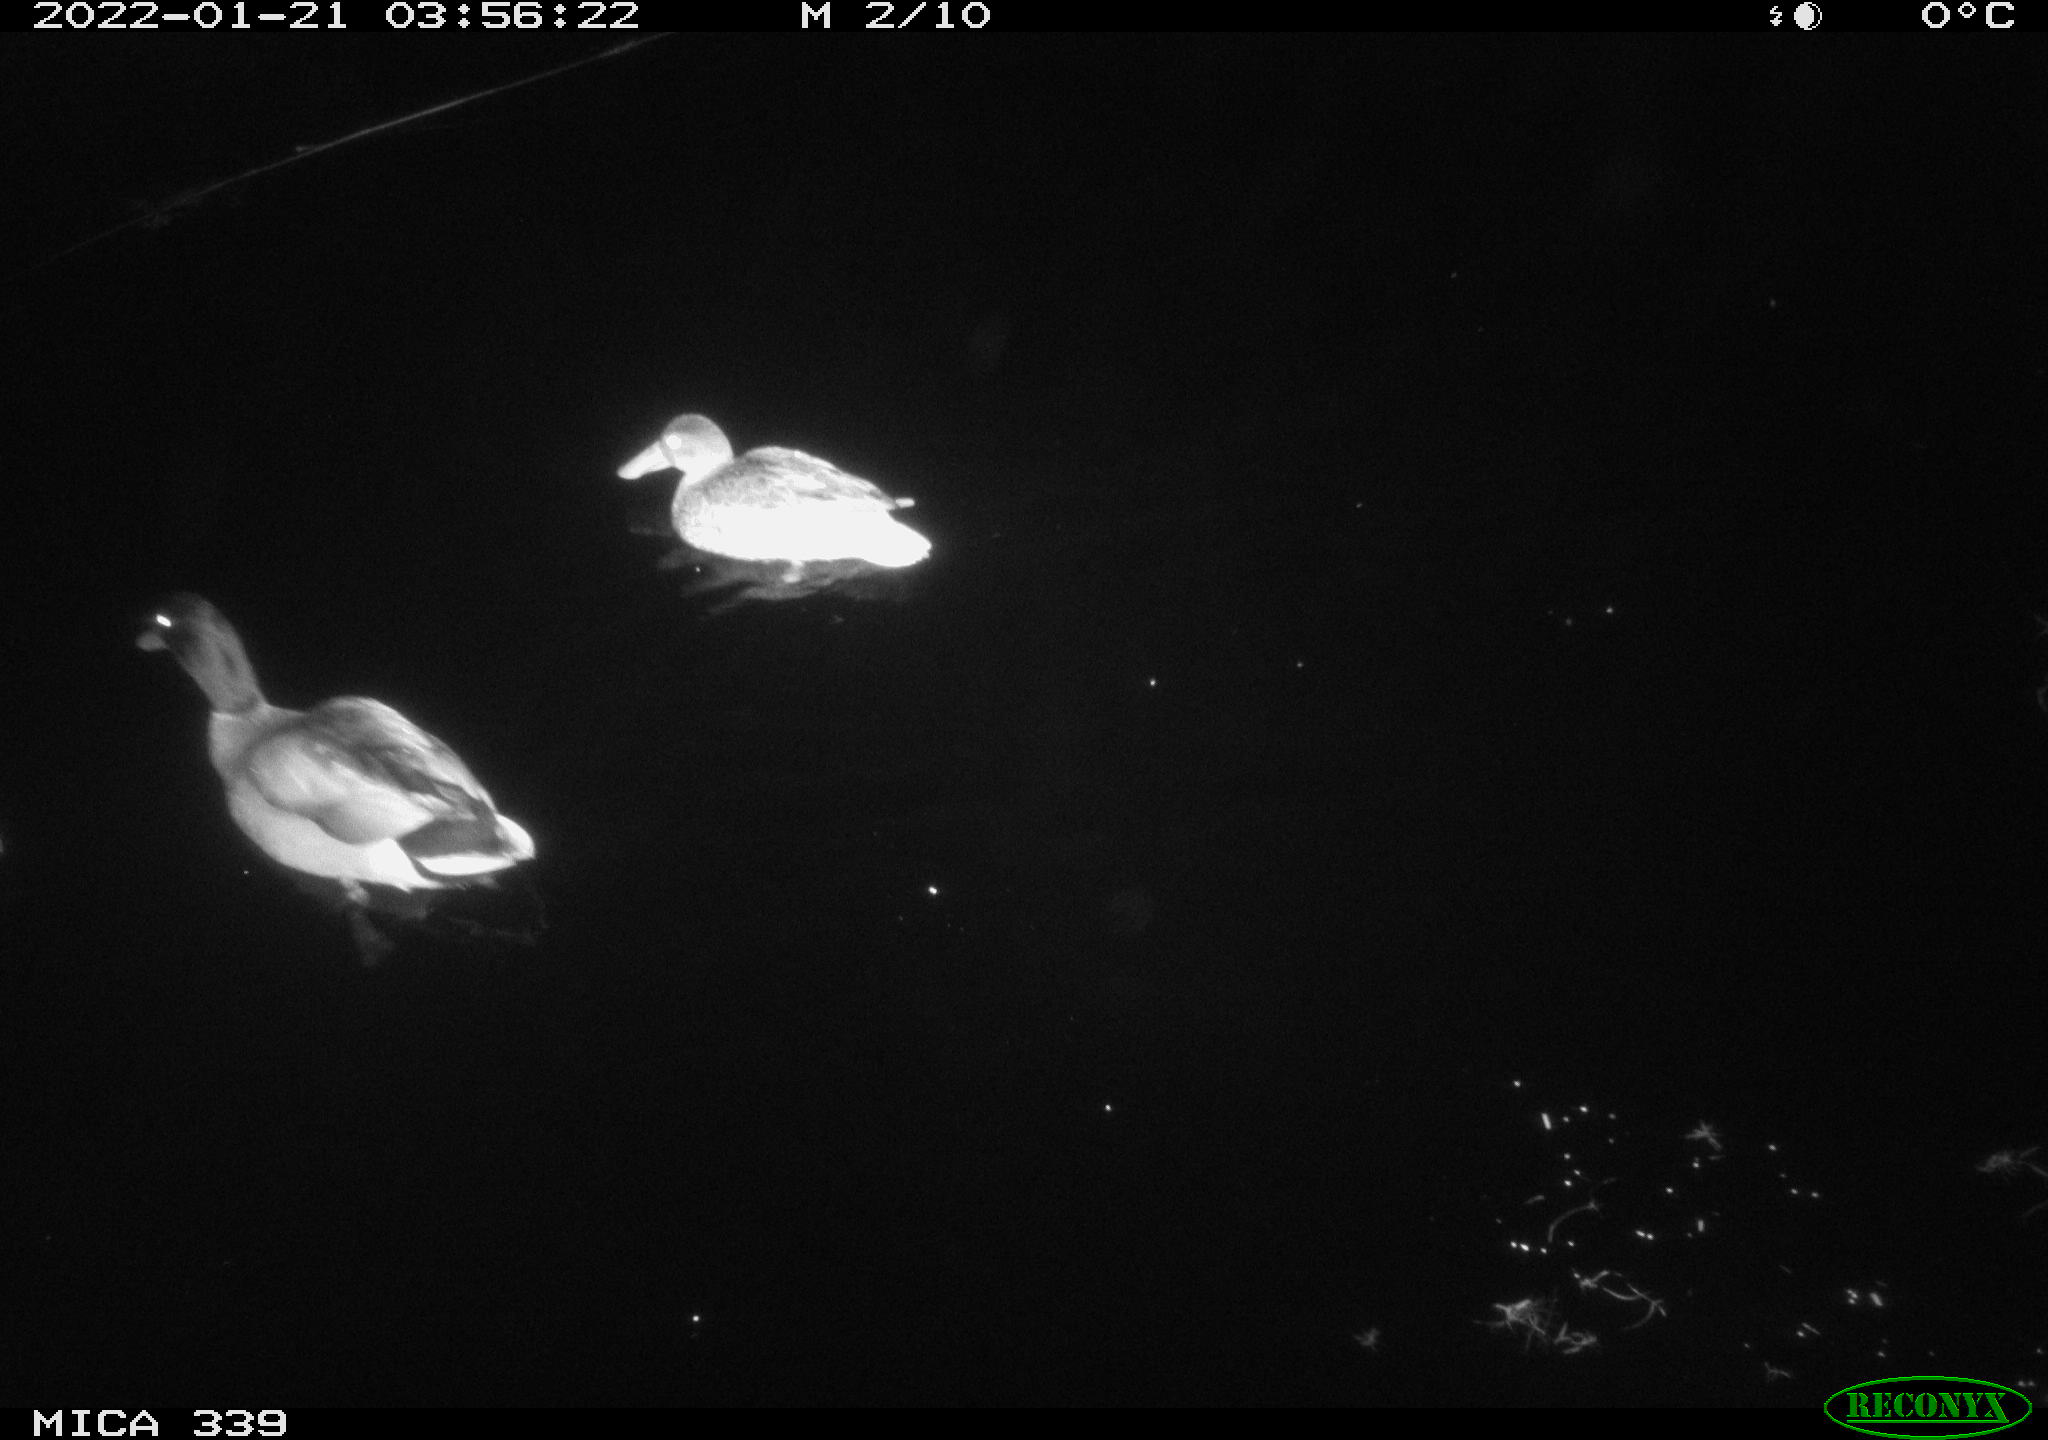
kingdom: Animalia
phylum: Chordata
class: Aves
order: Anseriformes
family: Anatidae
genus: Anas
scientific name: Anas platyrhynchos
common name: Mallard
